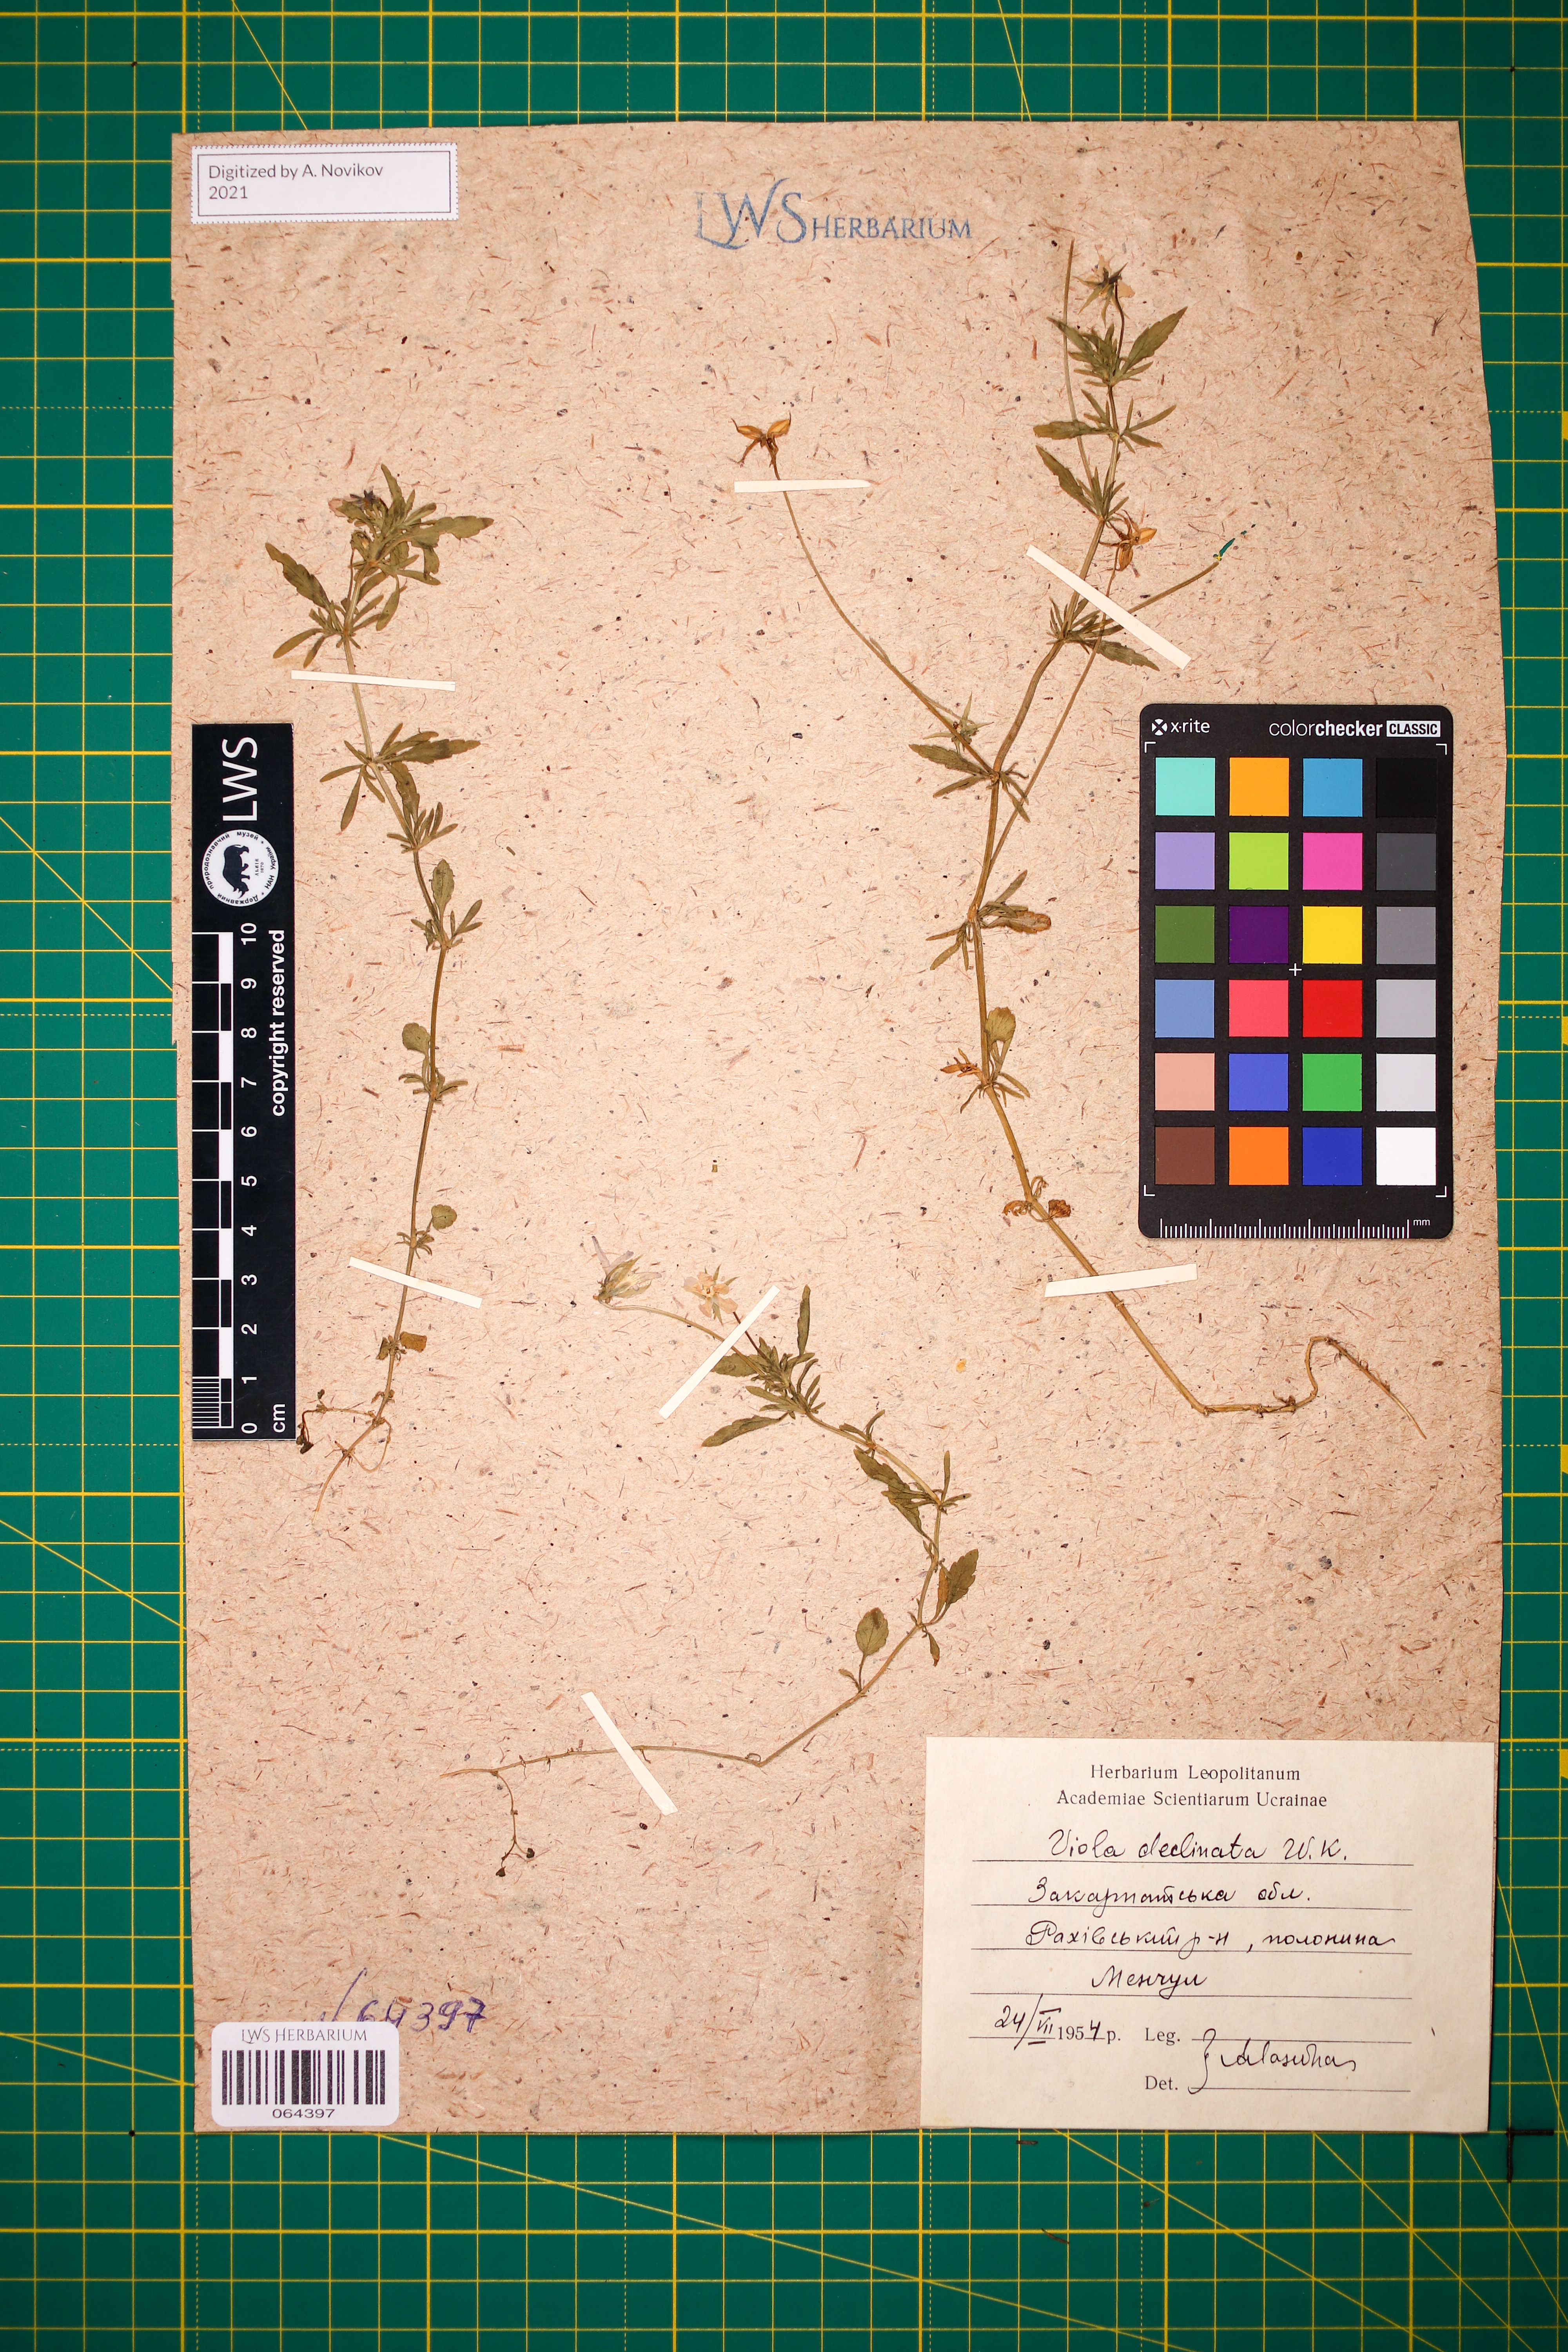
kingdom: Plantae
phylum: Tracheophyta
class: Magnoliopsida
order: Malpighiales
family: Violaceae
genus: Viola
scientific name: Viola declinata
